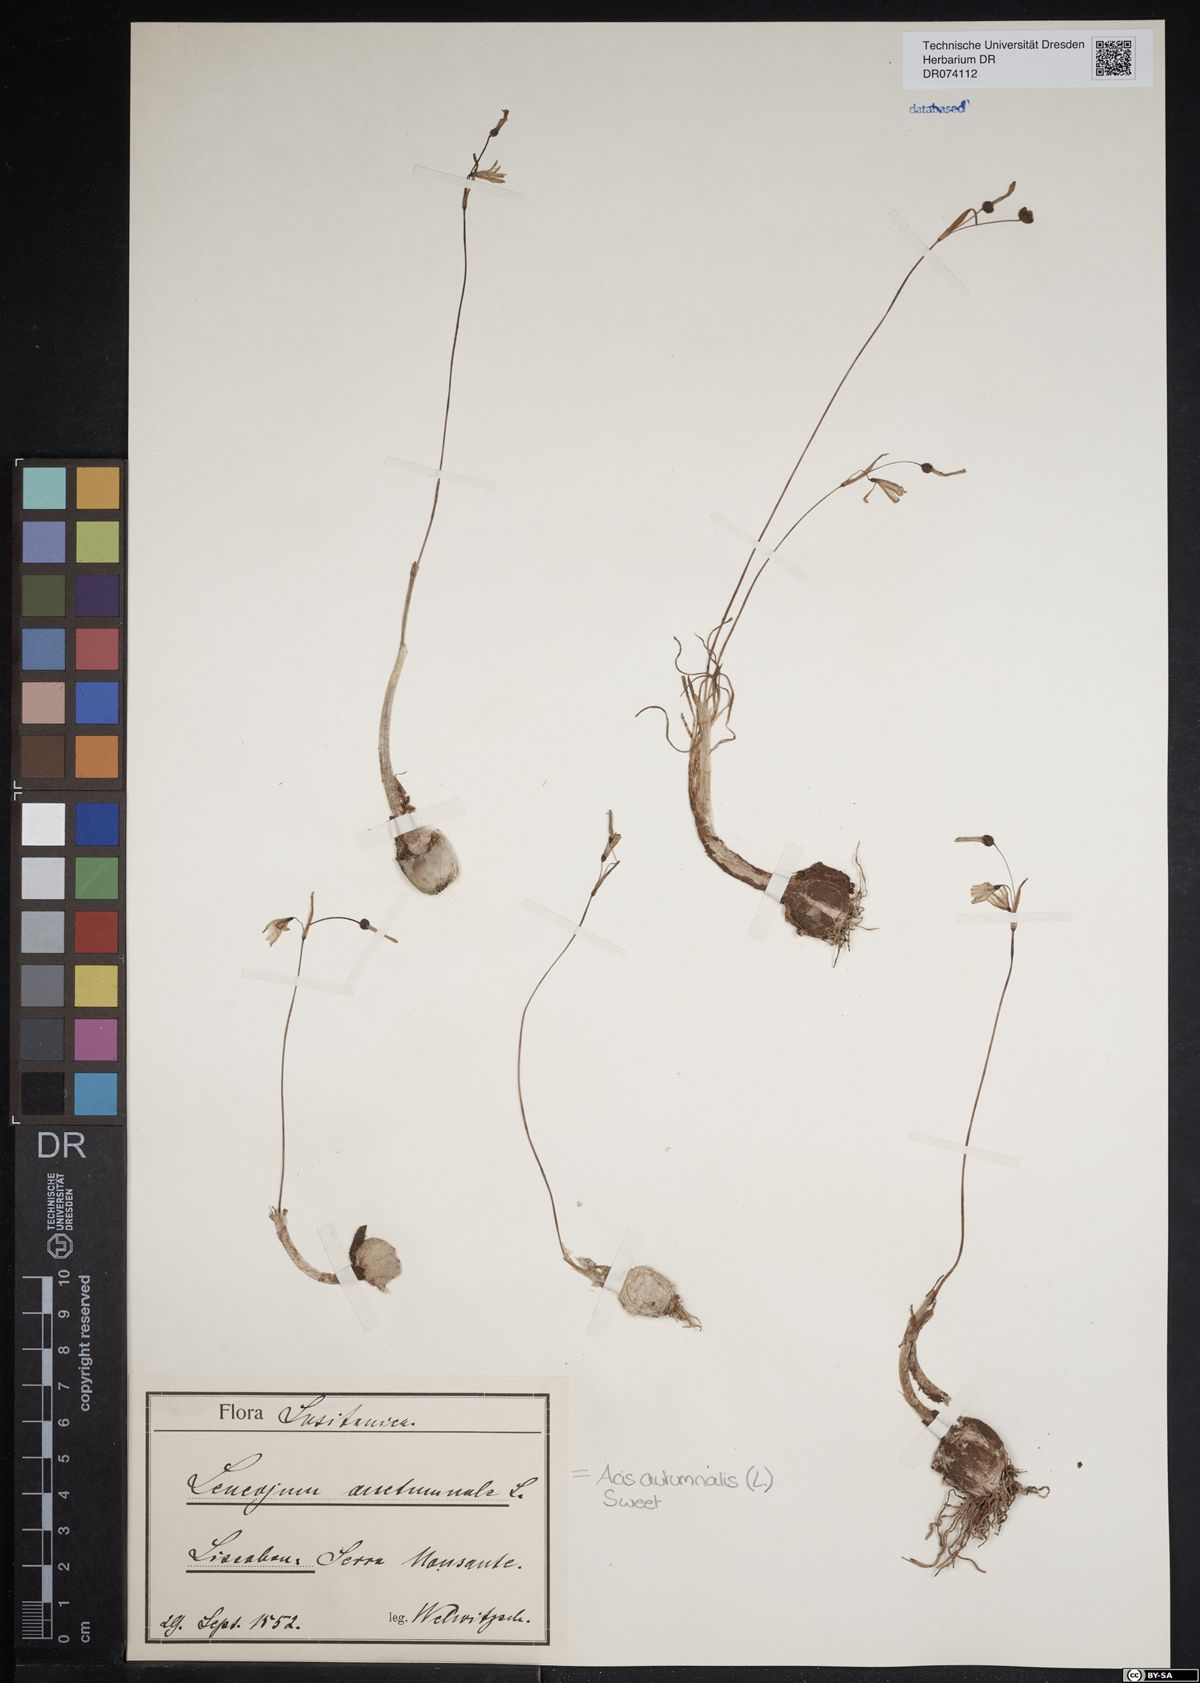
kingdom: Plantae
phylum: Tracheophyta
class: Liliopsida
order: Asparagales
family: Amaryllidaceae
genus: Acis
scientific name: Acis autumnalis
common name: Autumn snowflake
